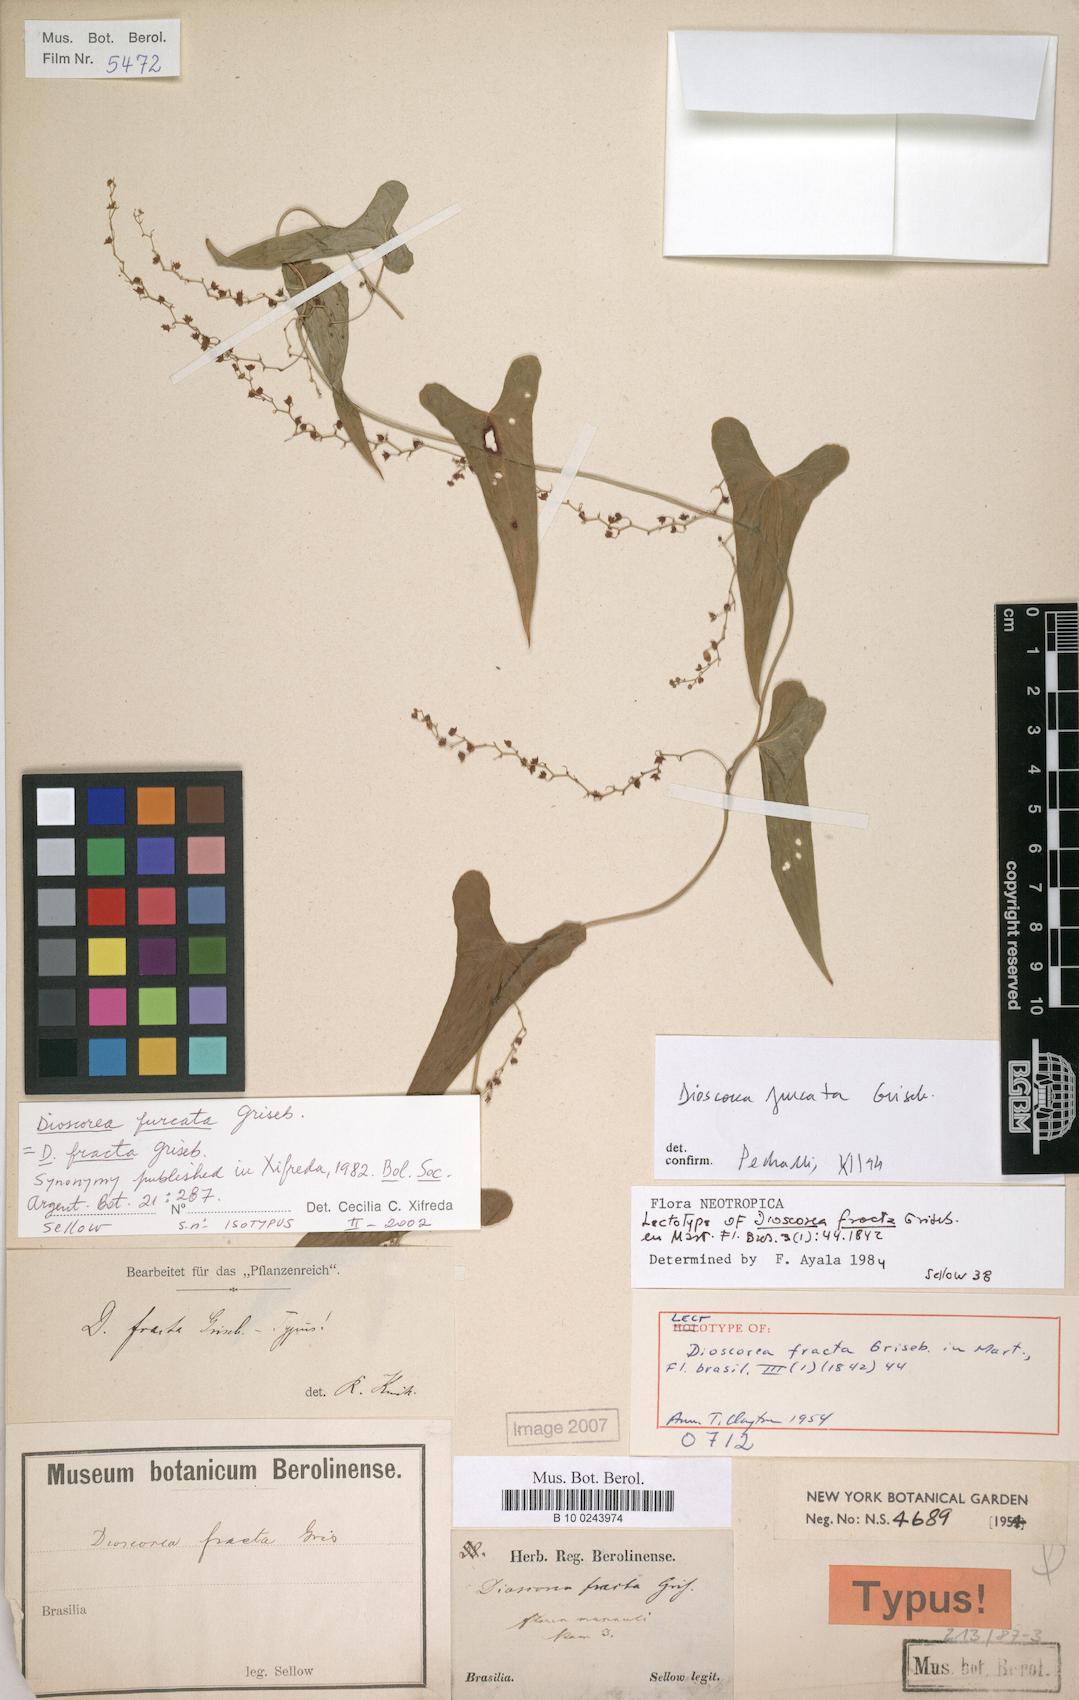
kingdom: Plantae
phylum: Tracheophyta
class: Liliopsida
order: Dioscoreales
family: Dioscoreaceae
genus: Dioscorea
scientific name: Dioscorea furcata
